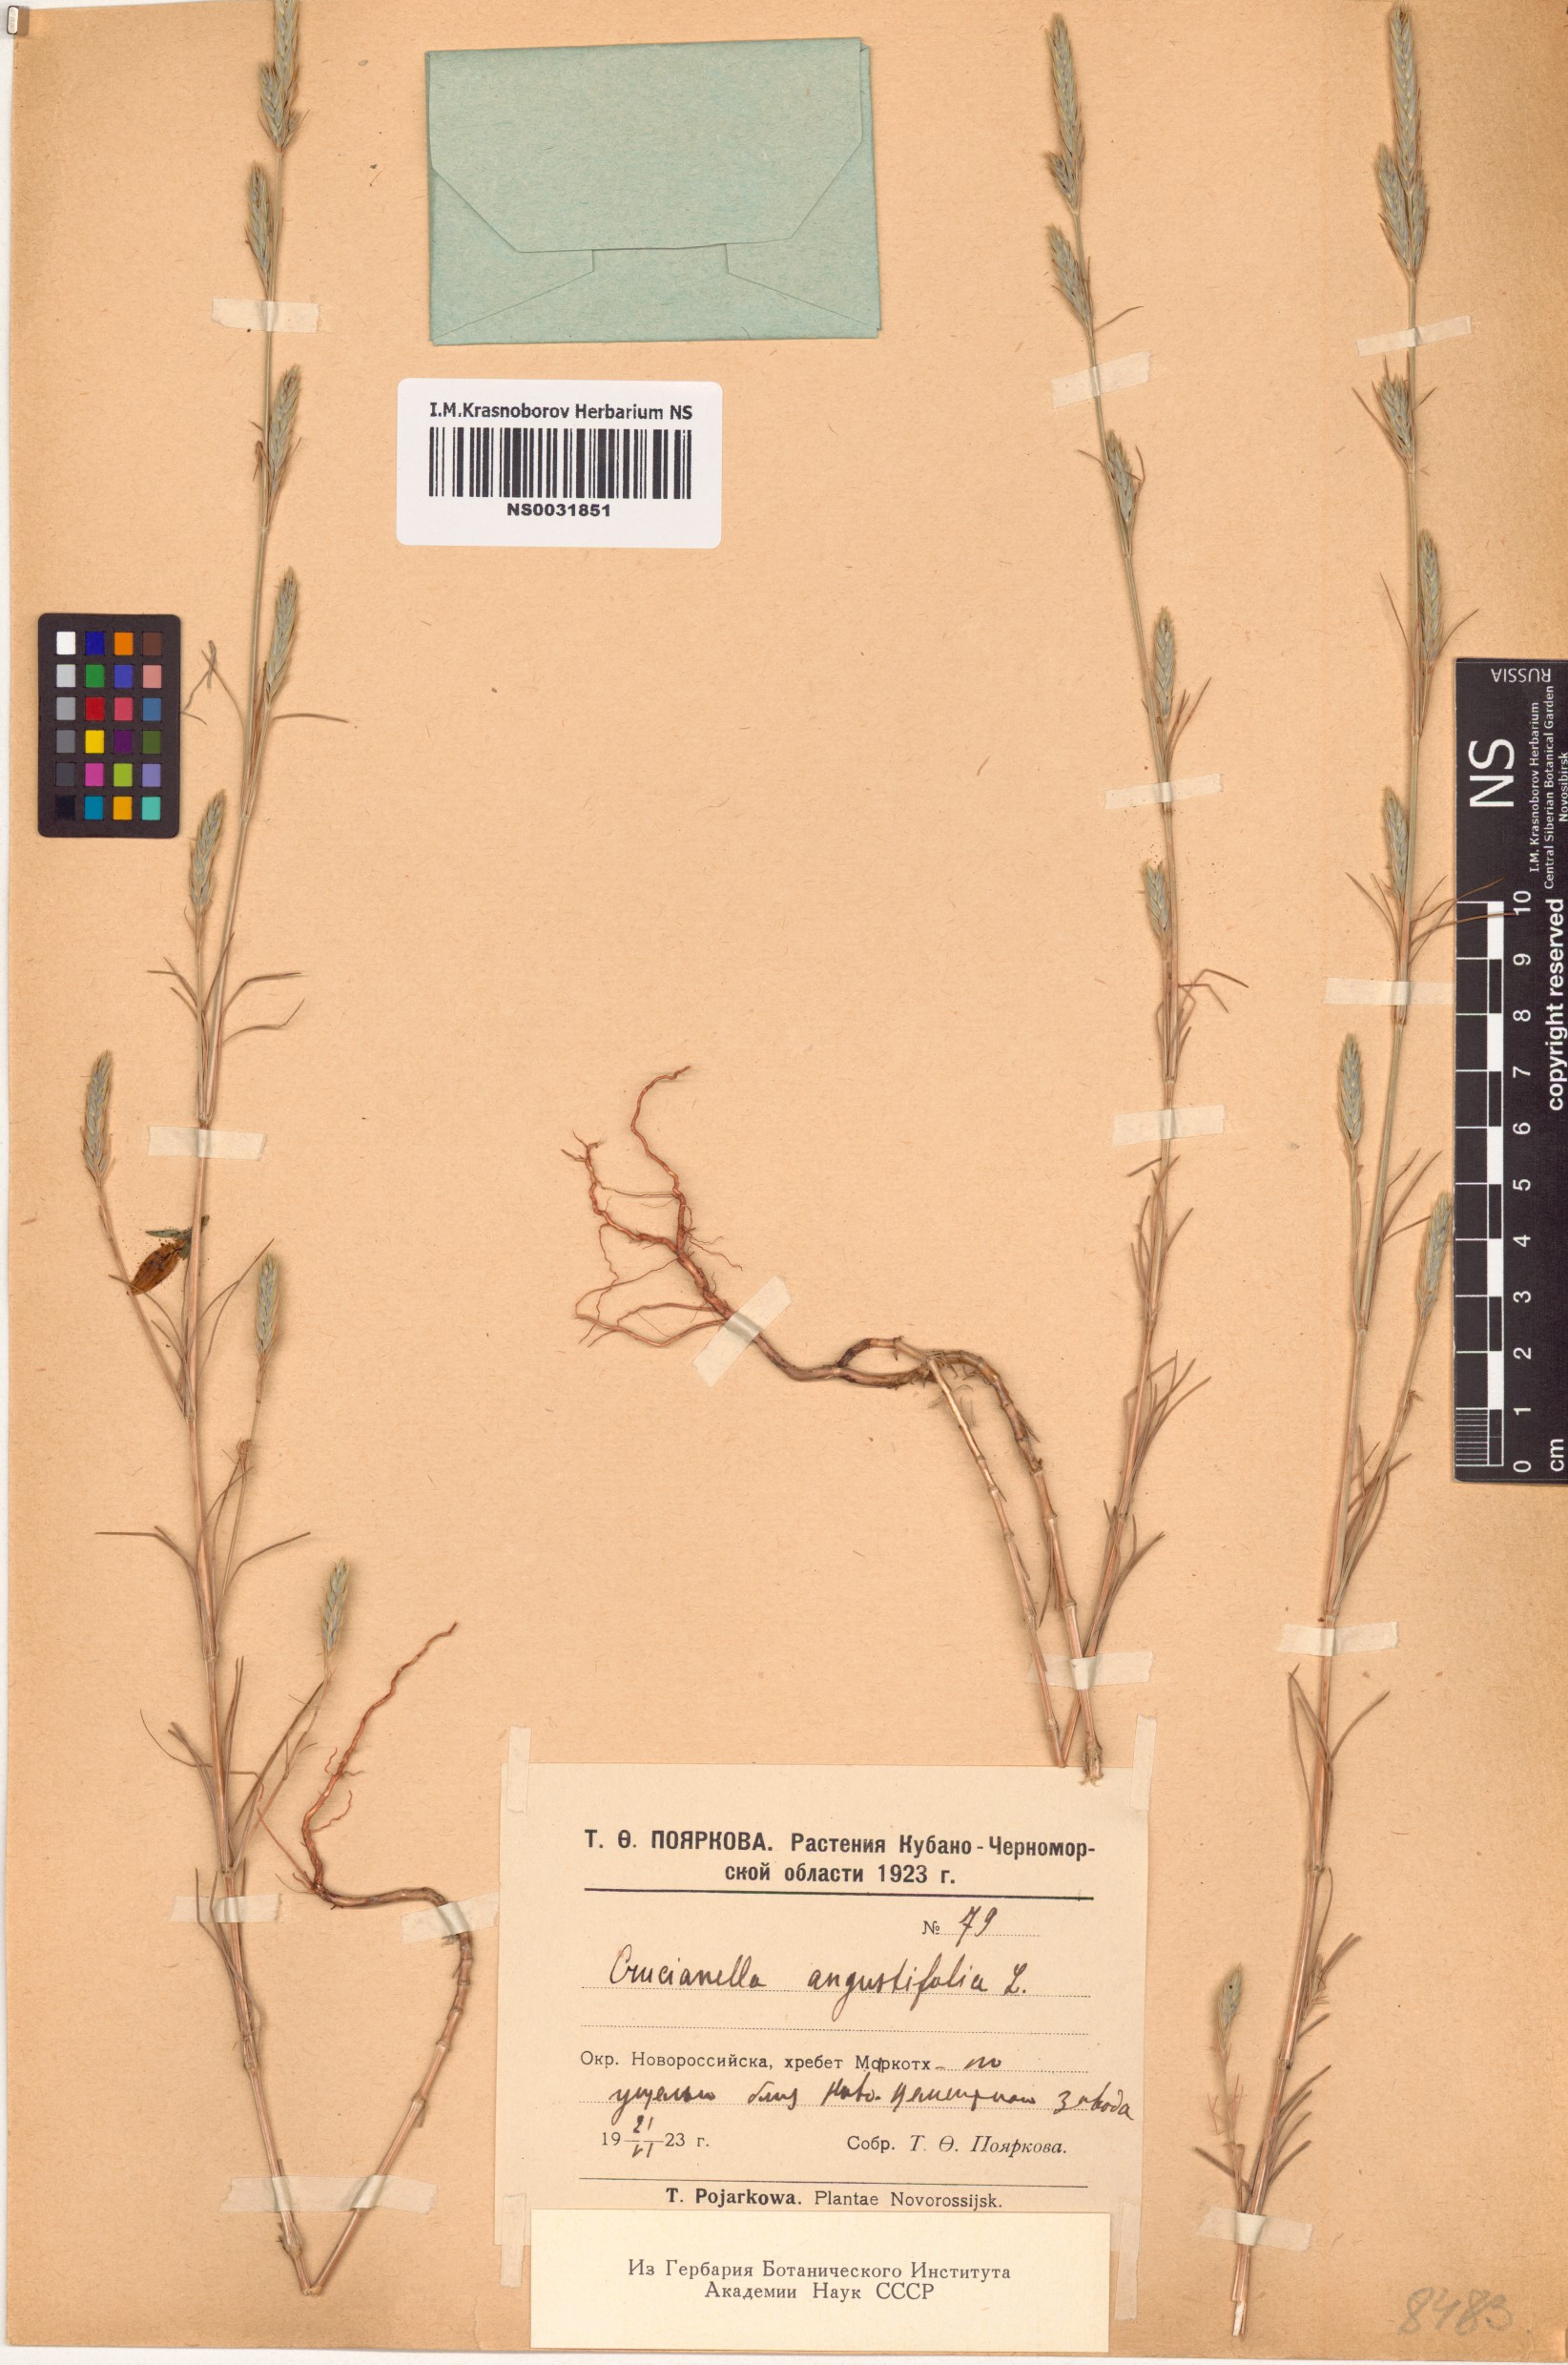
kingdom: Plantae
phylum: Tracheophyta
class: Magnoliopsida
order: Gentianales
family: Rubiaceae
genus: Crucianella
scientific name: Crucianella angustifolia
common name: Narrowleaf crucianella
